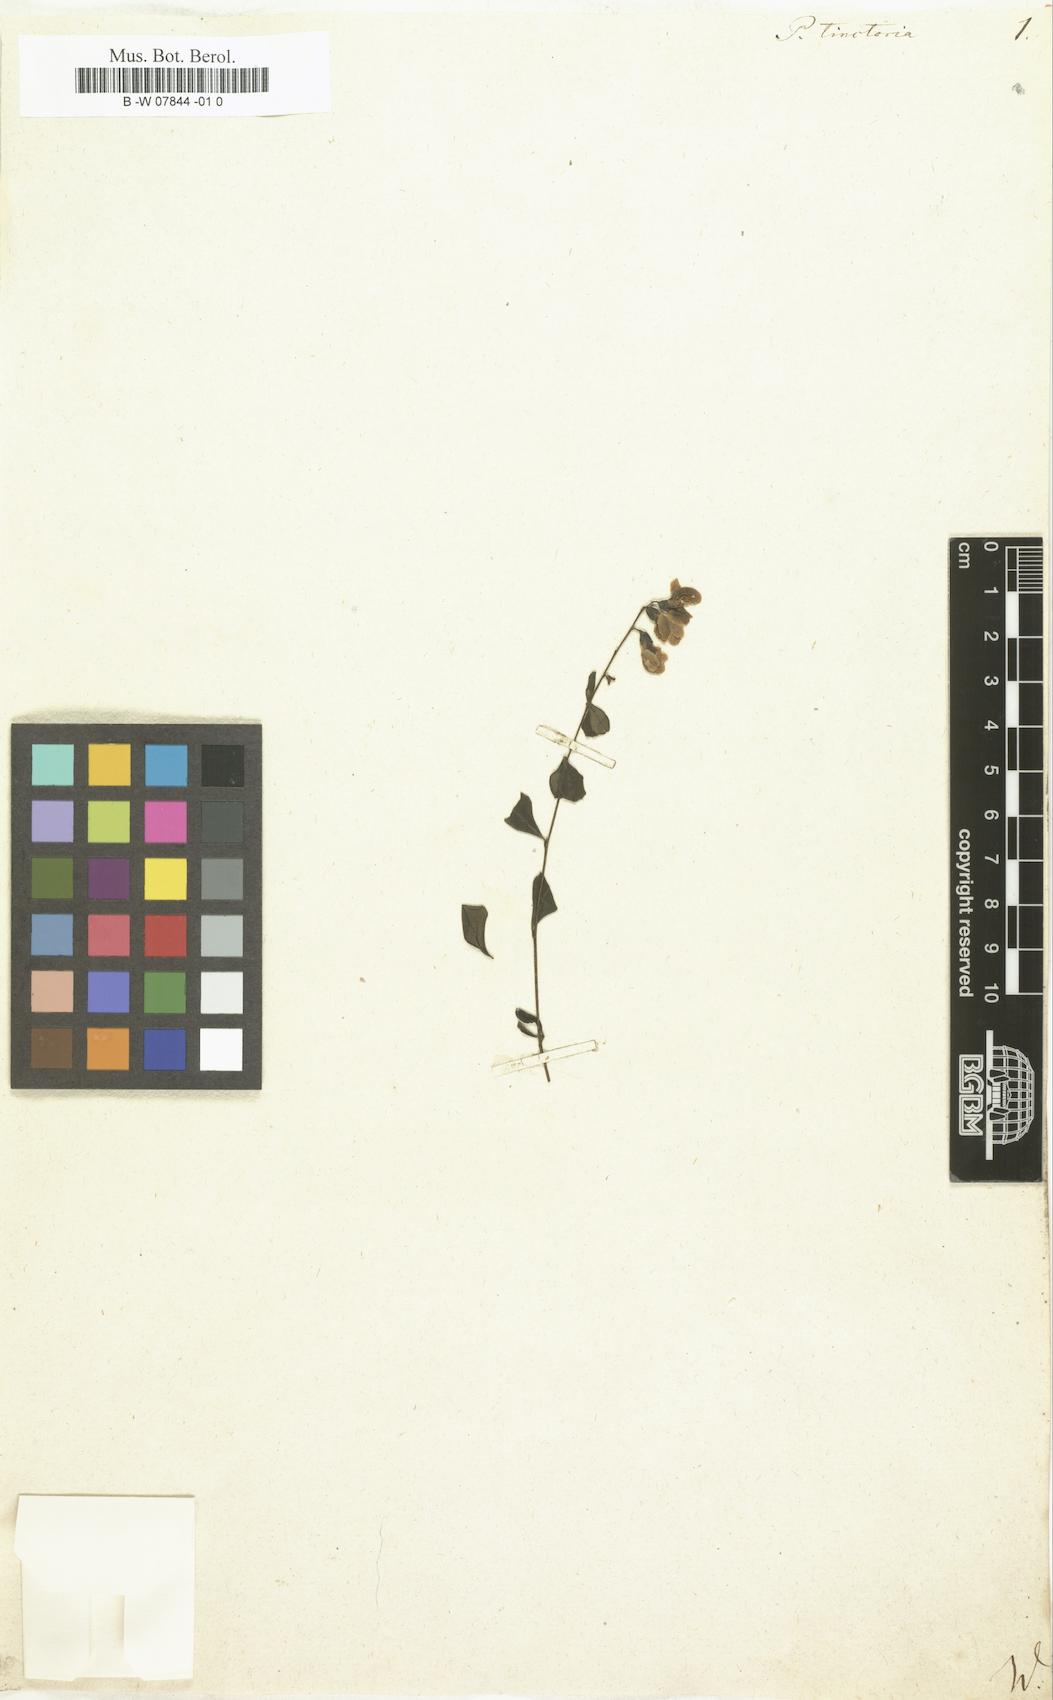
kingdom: Plantae
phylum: Tracheophyta
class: Magnoliopsida
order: Fabales
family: Fabaceae
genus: Baptisia
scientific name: Baptisia tinctoria
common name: Wild indigo
